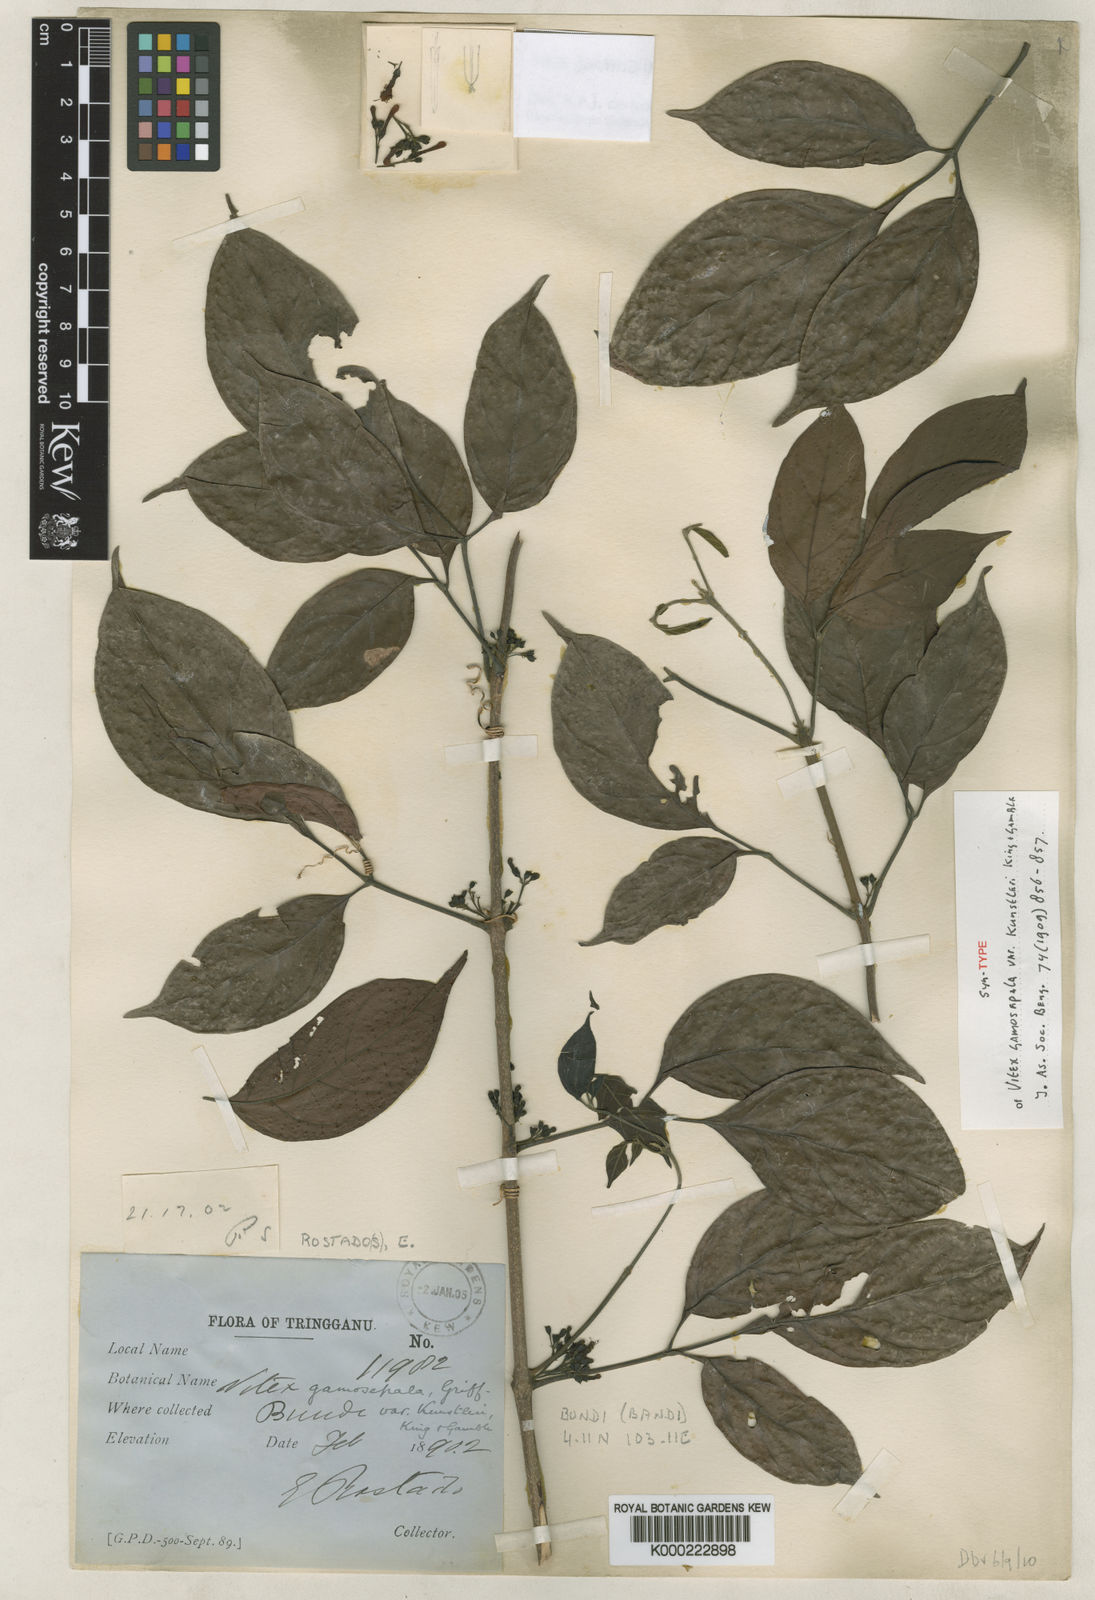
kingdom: Plantae
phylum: Tracheophyta
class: Magnoliopsida
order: Lamiales
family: Lamiaceae
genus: Vitex
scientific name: Vitex gamosepala
